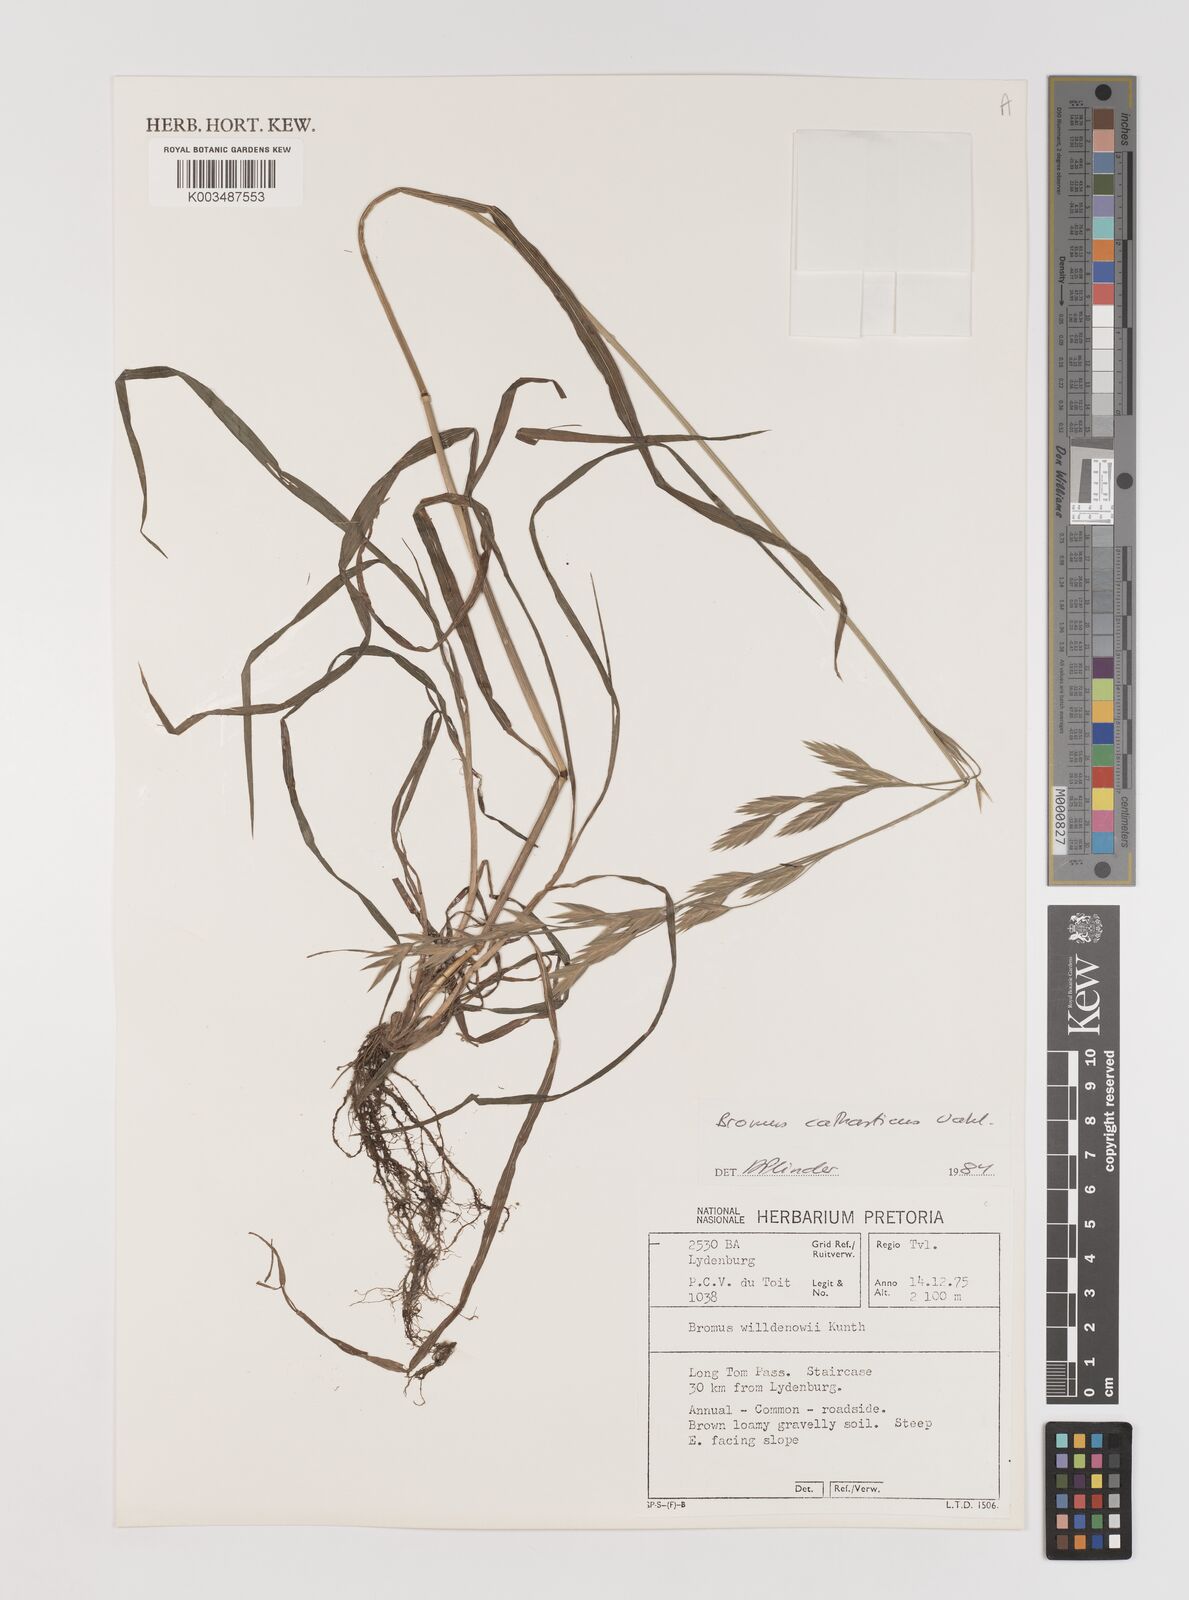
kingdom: Plantae
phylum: Tracheophyta
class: Liliopsida
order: Poales
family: Poaceae
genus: Bromus
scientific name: Bromus catharticus
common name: Rescuegrass
